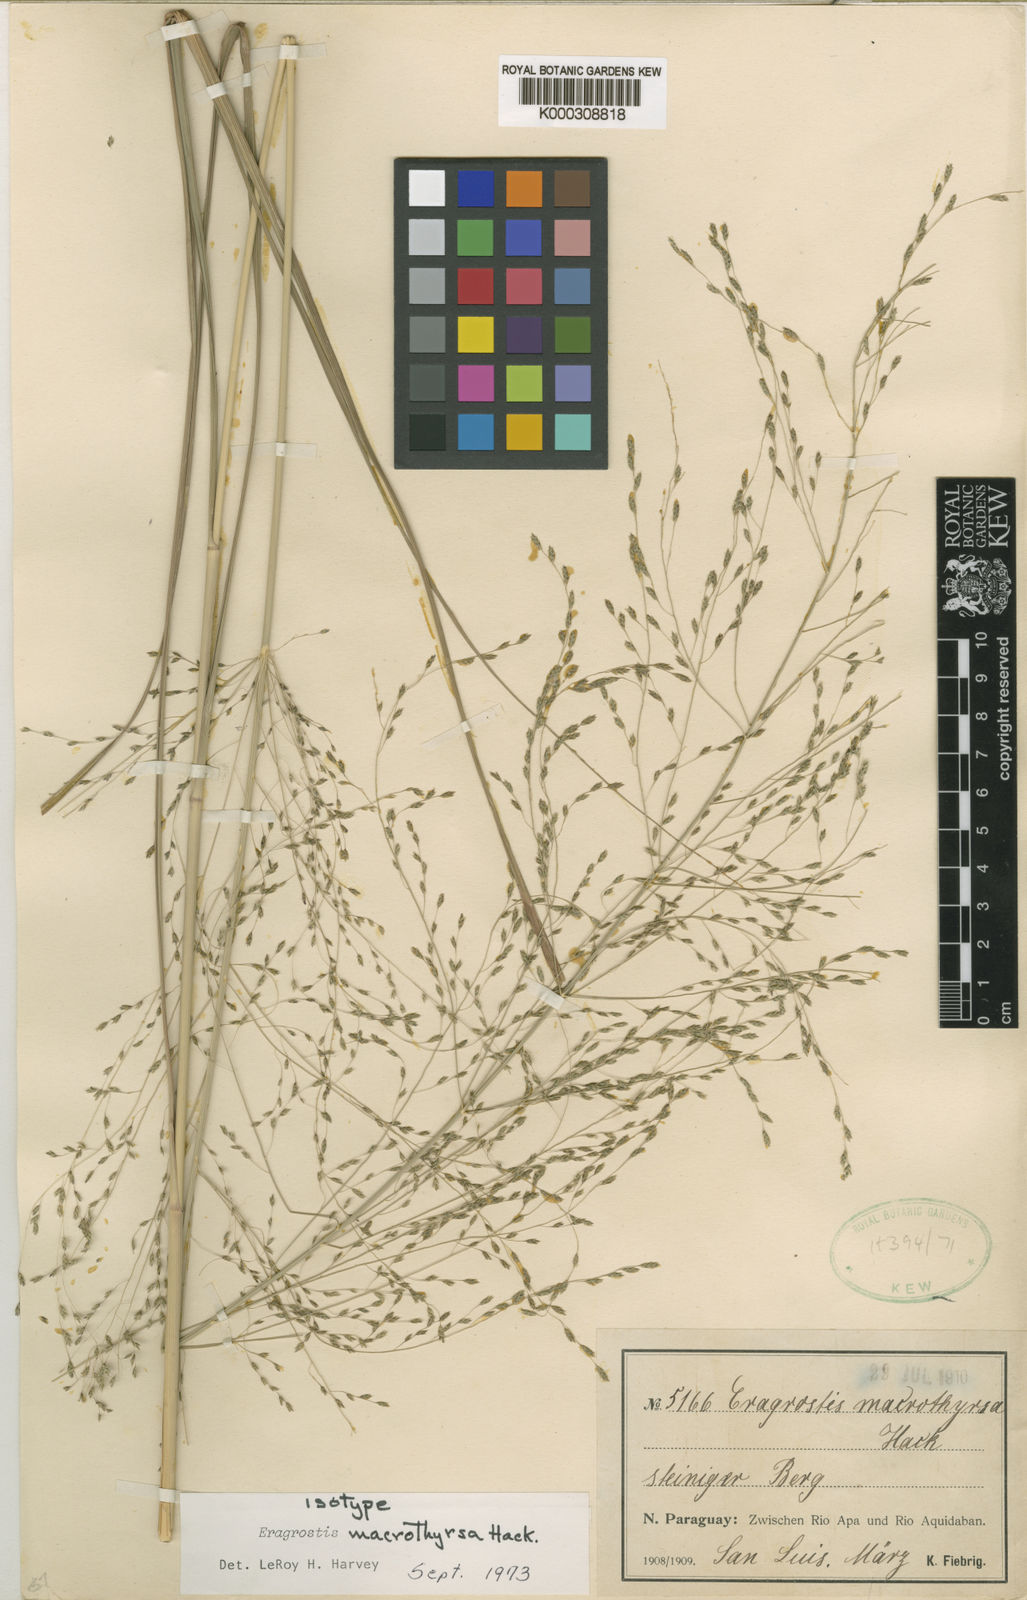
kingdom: Plantae
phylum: Tracheophyta
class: Liliopsida
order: Poales
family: Poaceae
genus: Eragrostis
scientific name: Eragrostis macrothyrsa
